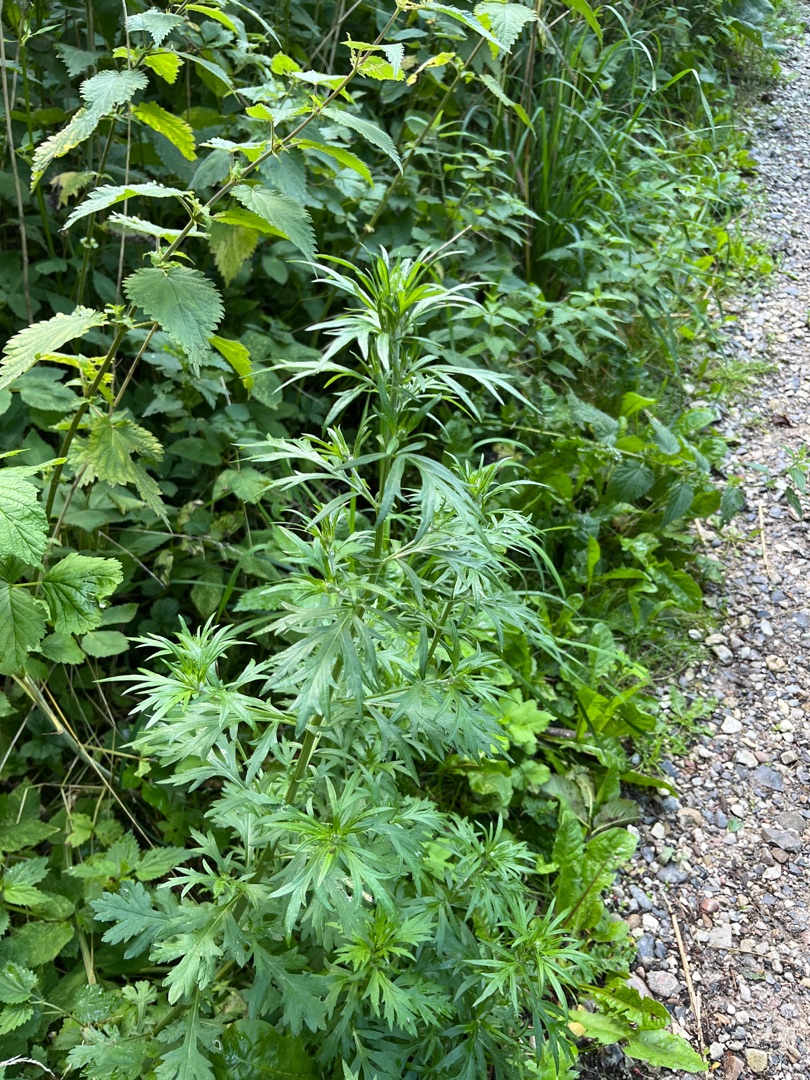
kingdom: Plantae
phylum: Tracheophyta
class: Magnoliopsida
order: Asterales
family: Asteraceae
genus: Artemisia
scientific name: Artemisia vulgaris
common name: Grå-bynke
